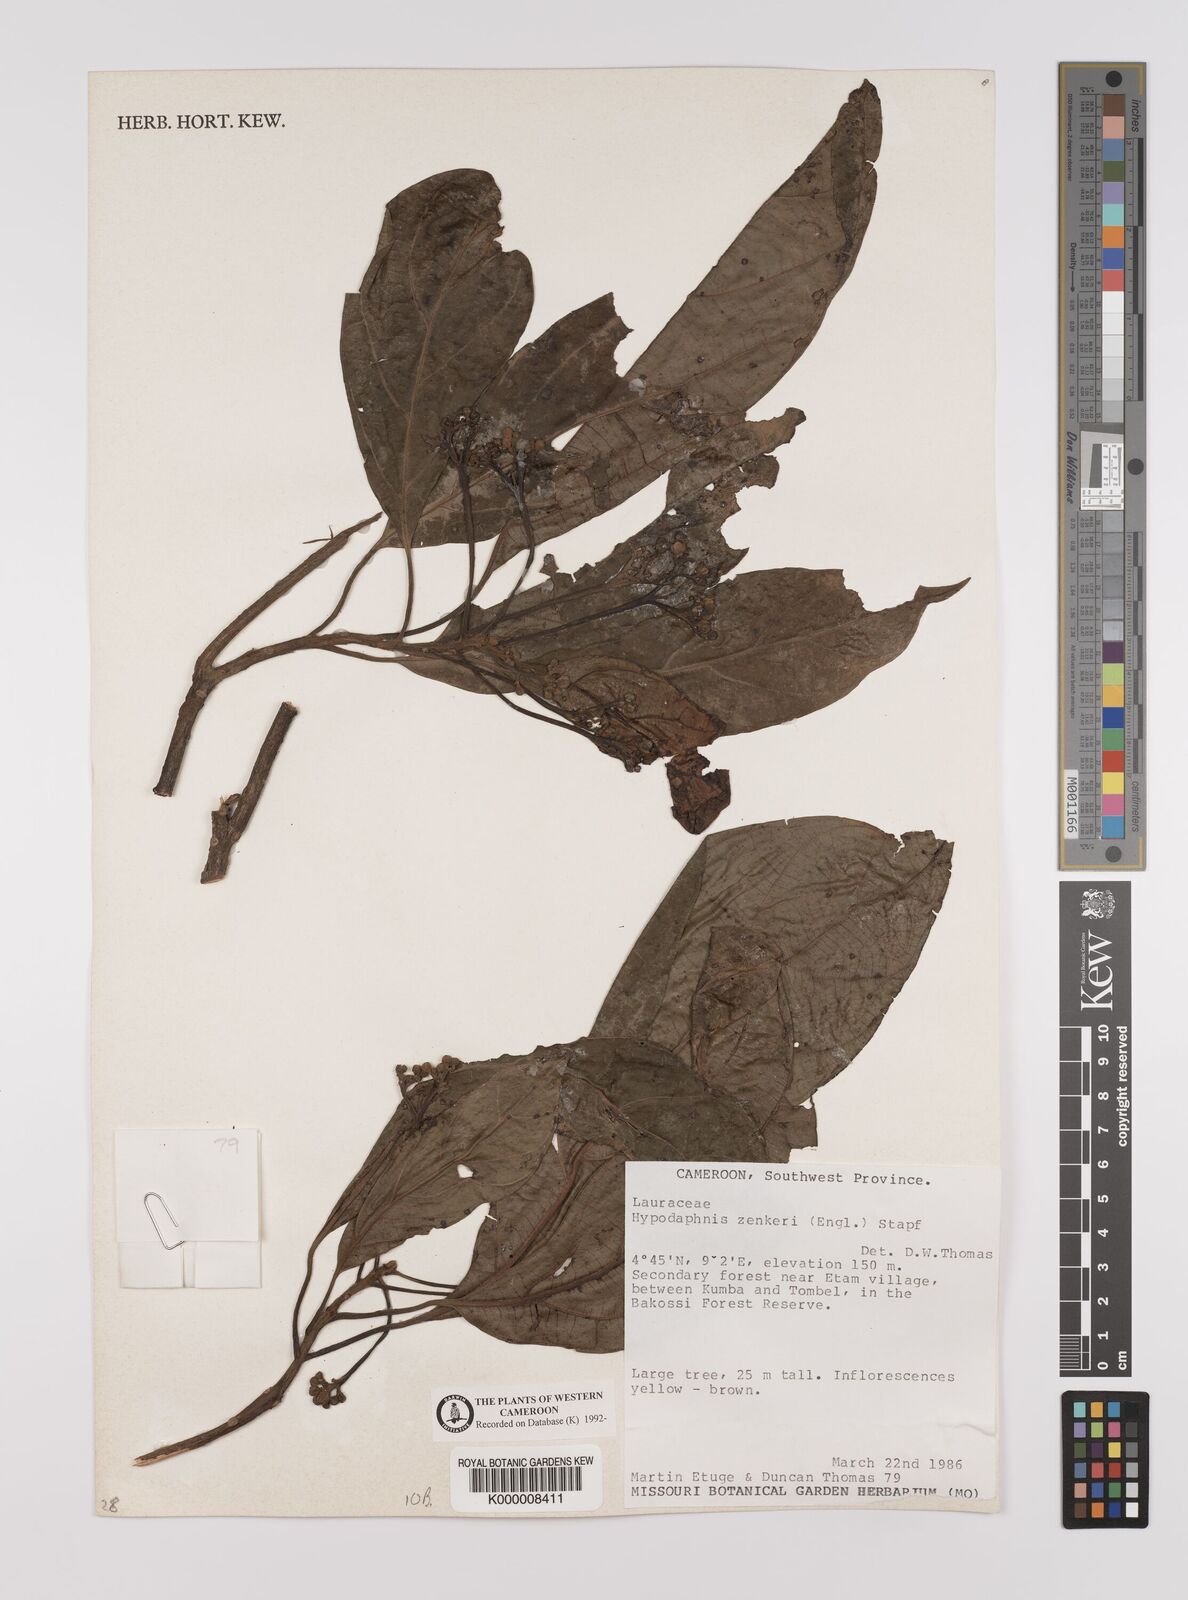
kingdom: Plantae
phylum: Tracheophyta
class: Magnoliopsida
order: Laurales
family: Lauraceae
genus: Hypodaphnis
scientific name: Hypodaphnis zenkeri
